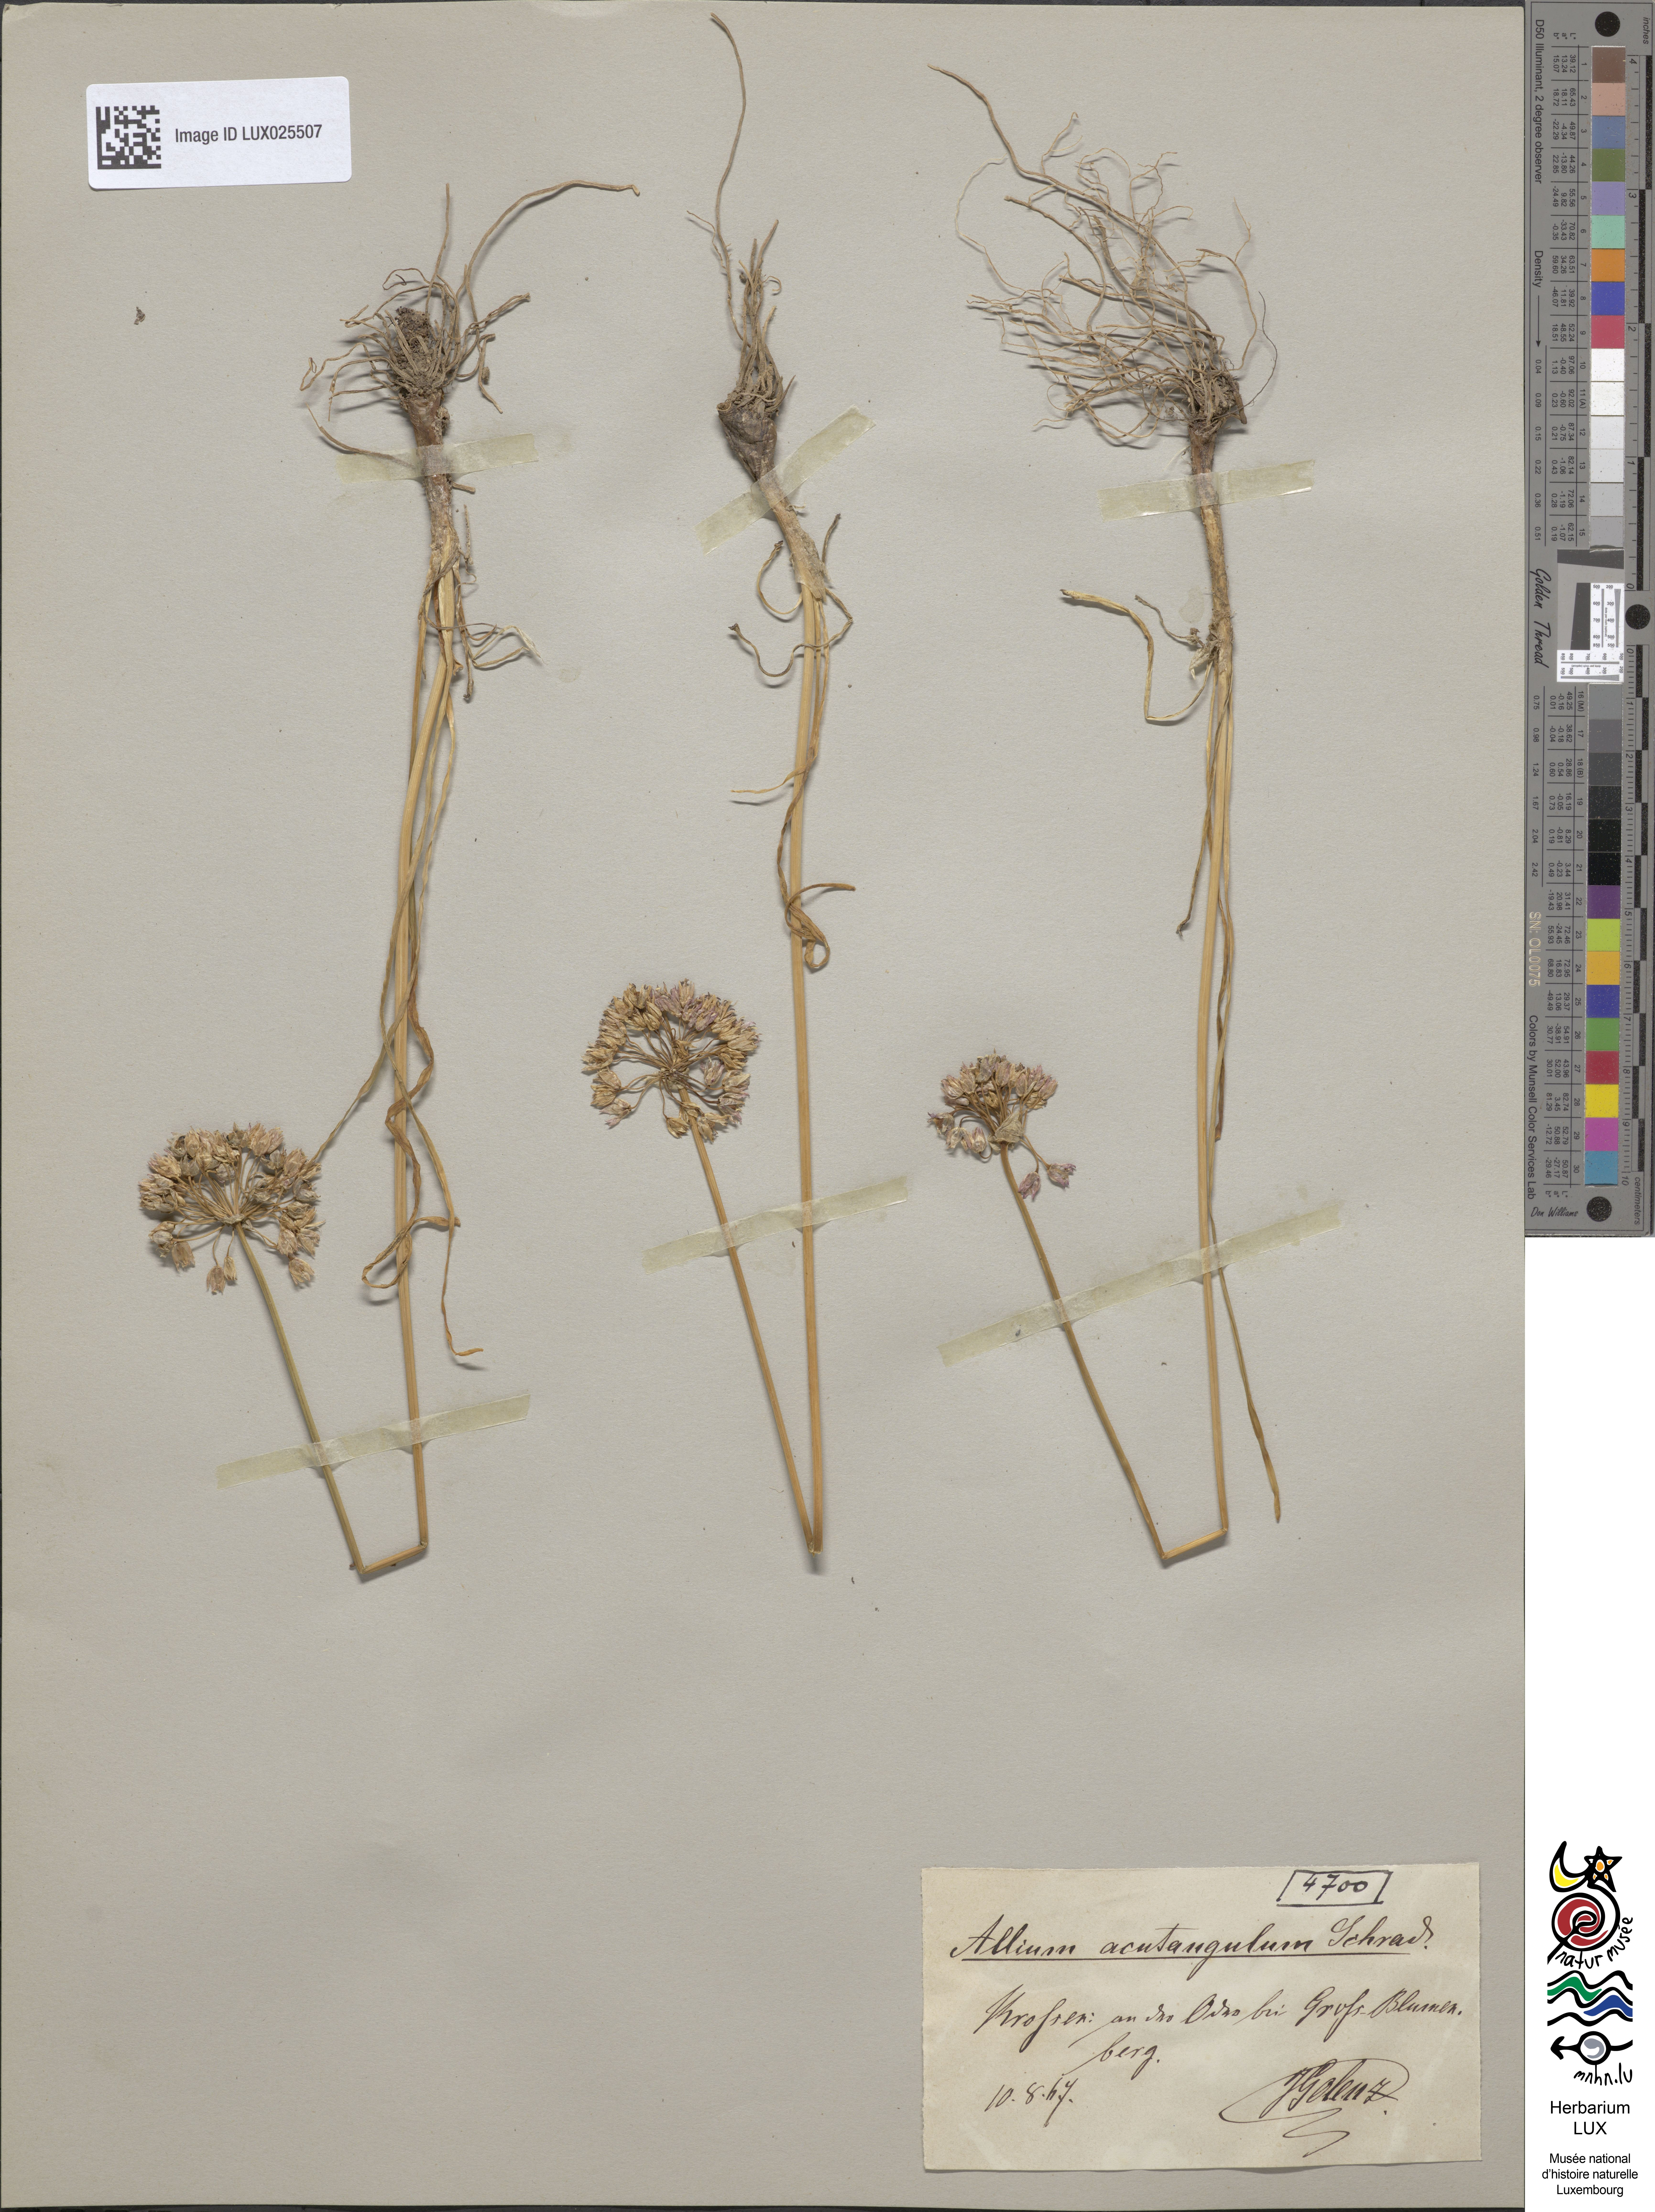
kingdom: Plantae
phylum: Tracheophyta
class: Liliopsida
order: Asparagales
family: Amaryllidaceae
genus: Allium
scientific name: Allium angulosum
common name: Mouse garlic
